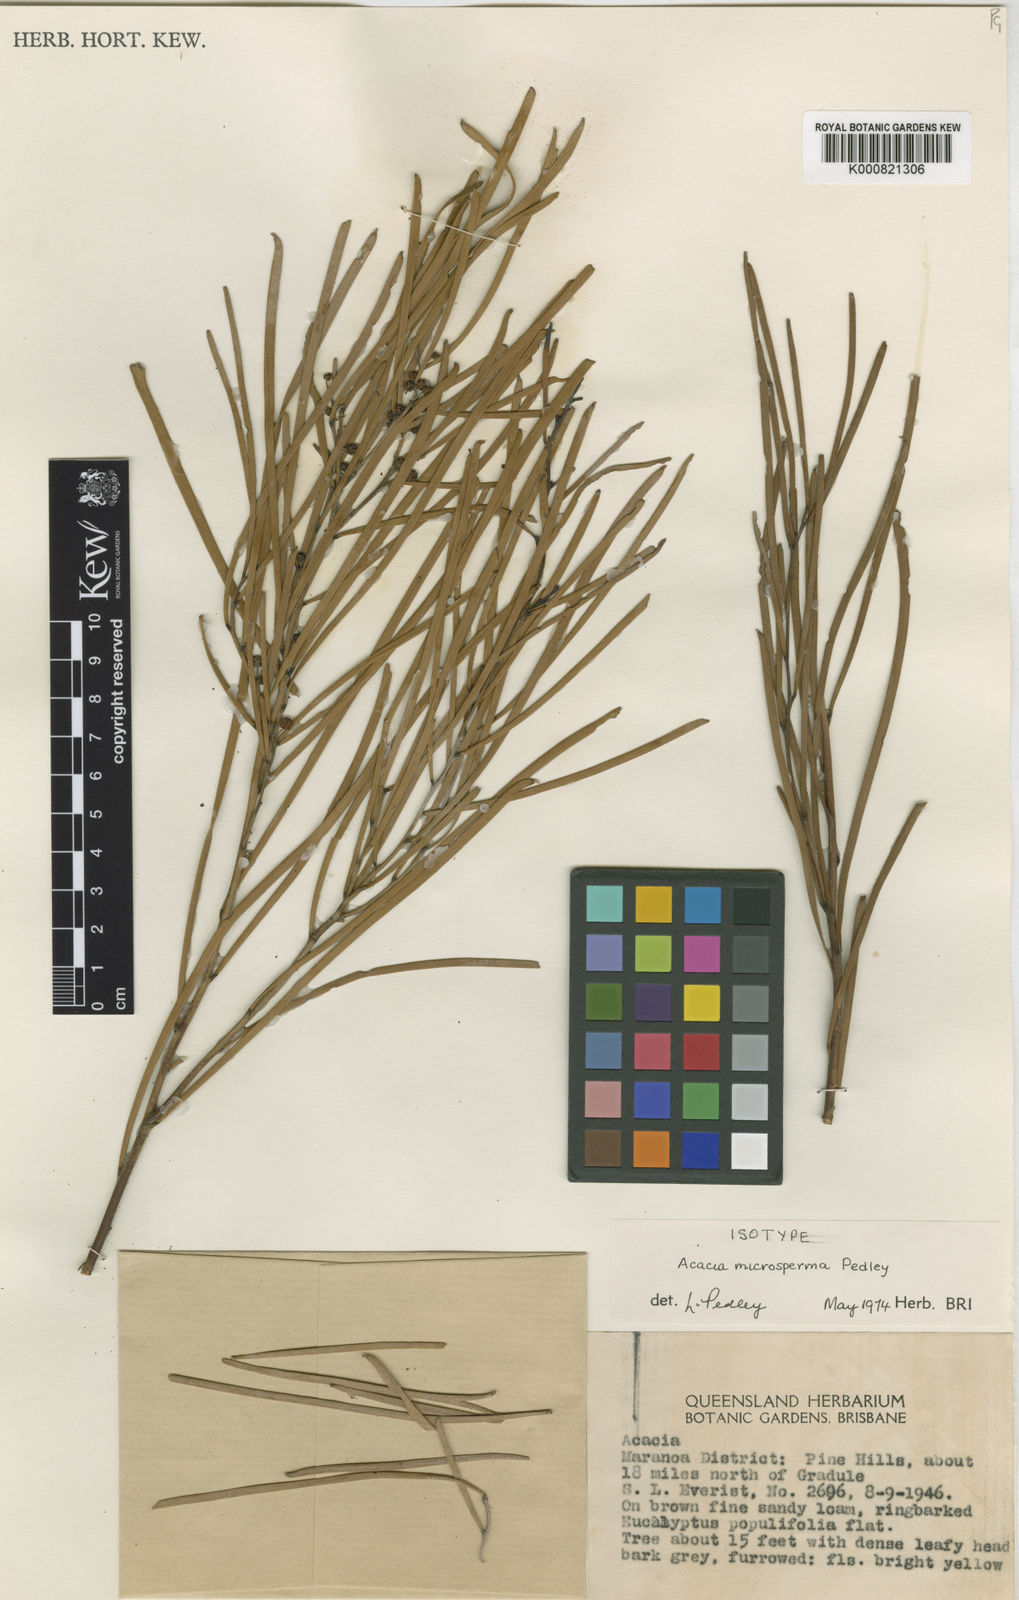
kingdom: Plantae
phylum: Tracheophyta
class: Magnoliopsida
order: Fabales
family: Fabaceae
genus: Acacia
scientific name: Acacia microsperma
